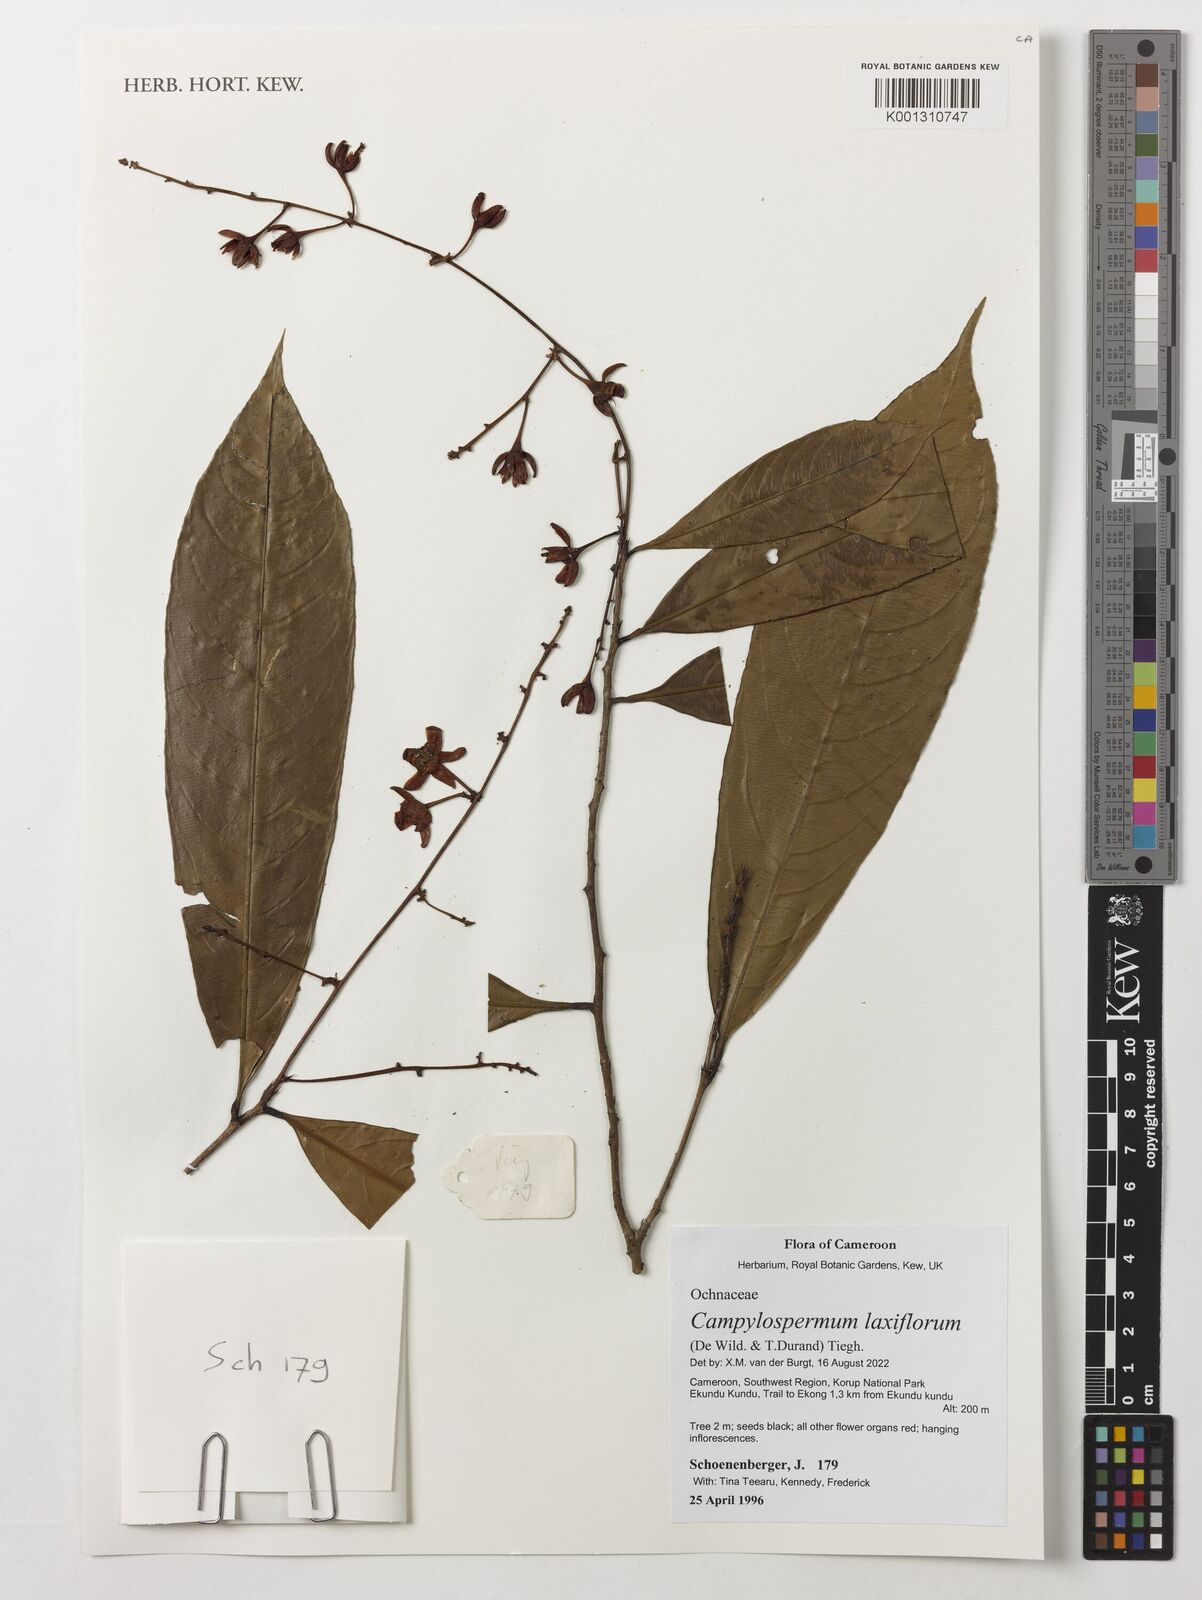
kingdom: Plantae
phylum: Tracheophyta
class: Magnoliopsida
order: Malpighiales
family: Ochnaceae
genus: Campylospermum
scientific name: Campylospermum laxiflorum
